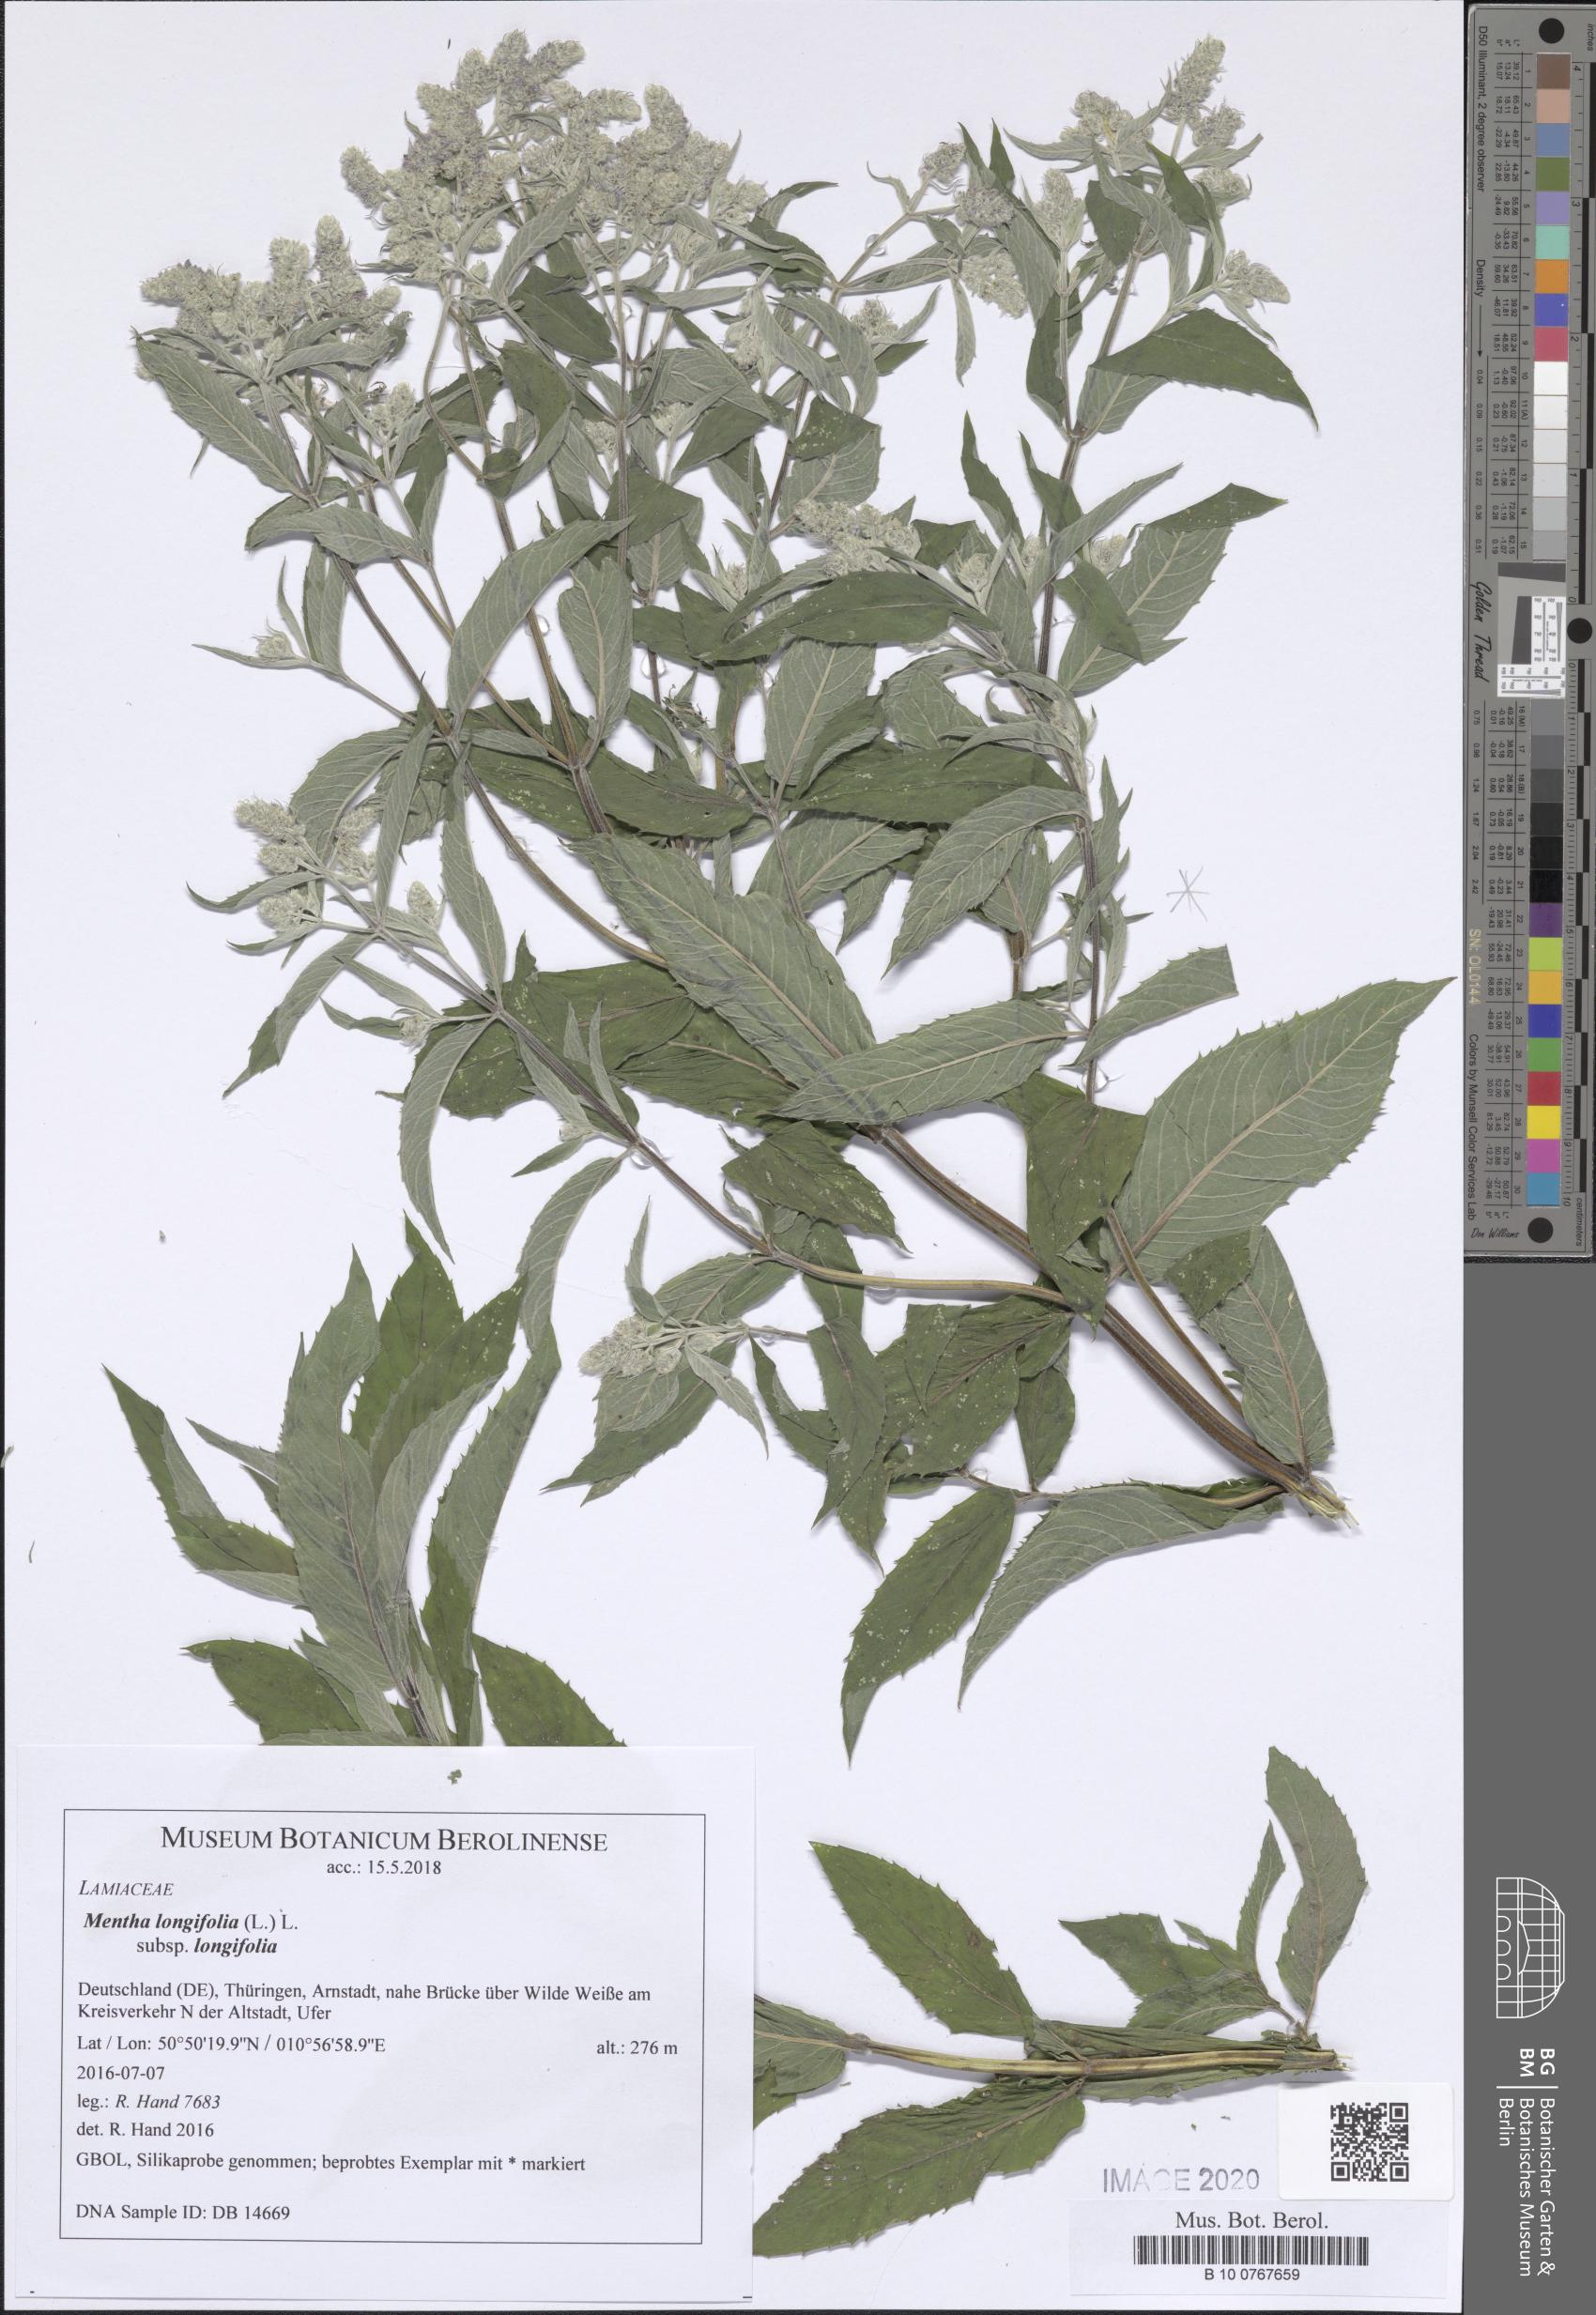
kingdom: Plantae
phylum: Tracheophyta
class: Magnoliopsida
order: Lamiales
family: Lamiaceae
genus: Mentha
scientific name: Mentha longifolia
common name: Horse mint
